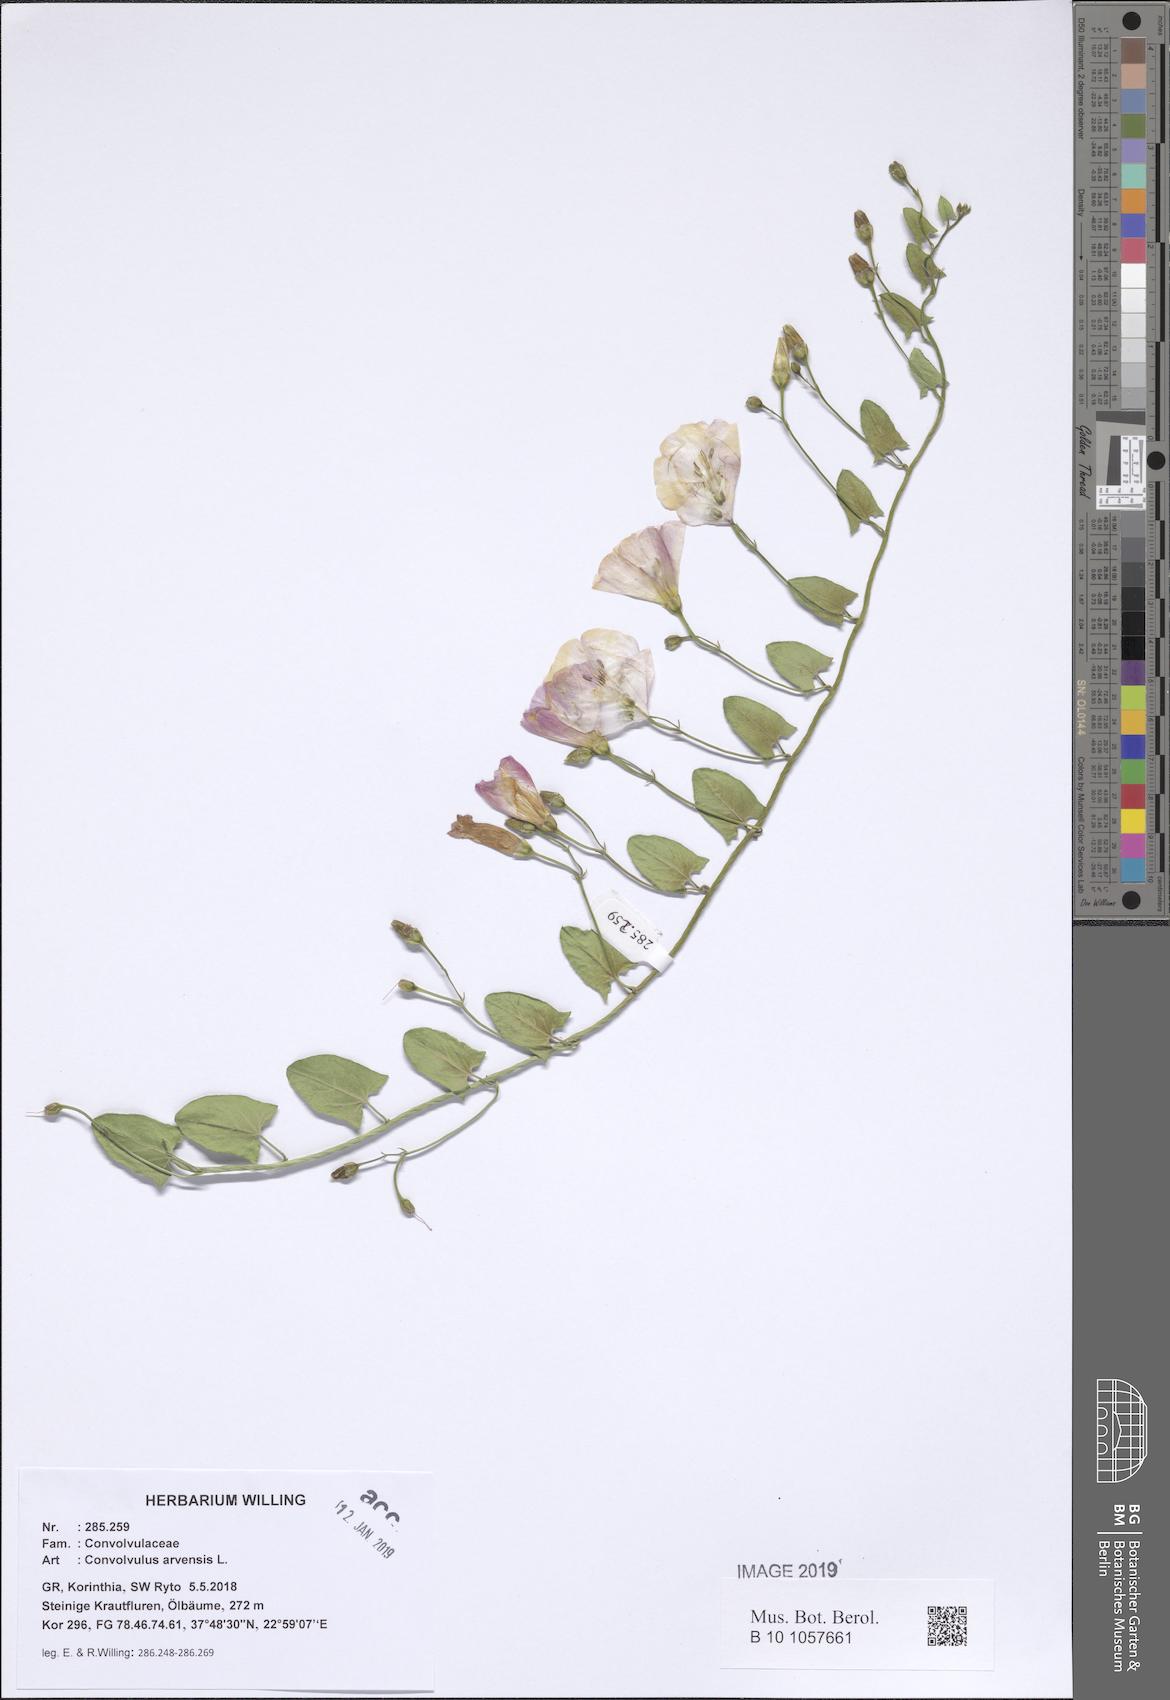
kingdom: Plantae
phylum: Tracheophyta
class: Magnoliopsida
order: Solanales
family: Convolvulaceae
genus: Convolvulus
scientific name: Convolvulus arvensis
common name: Field bindweed
